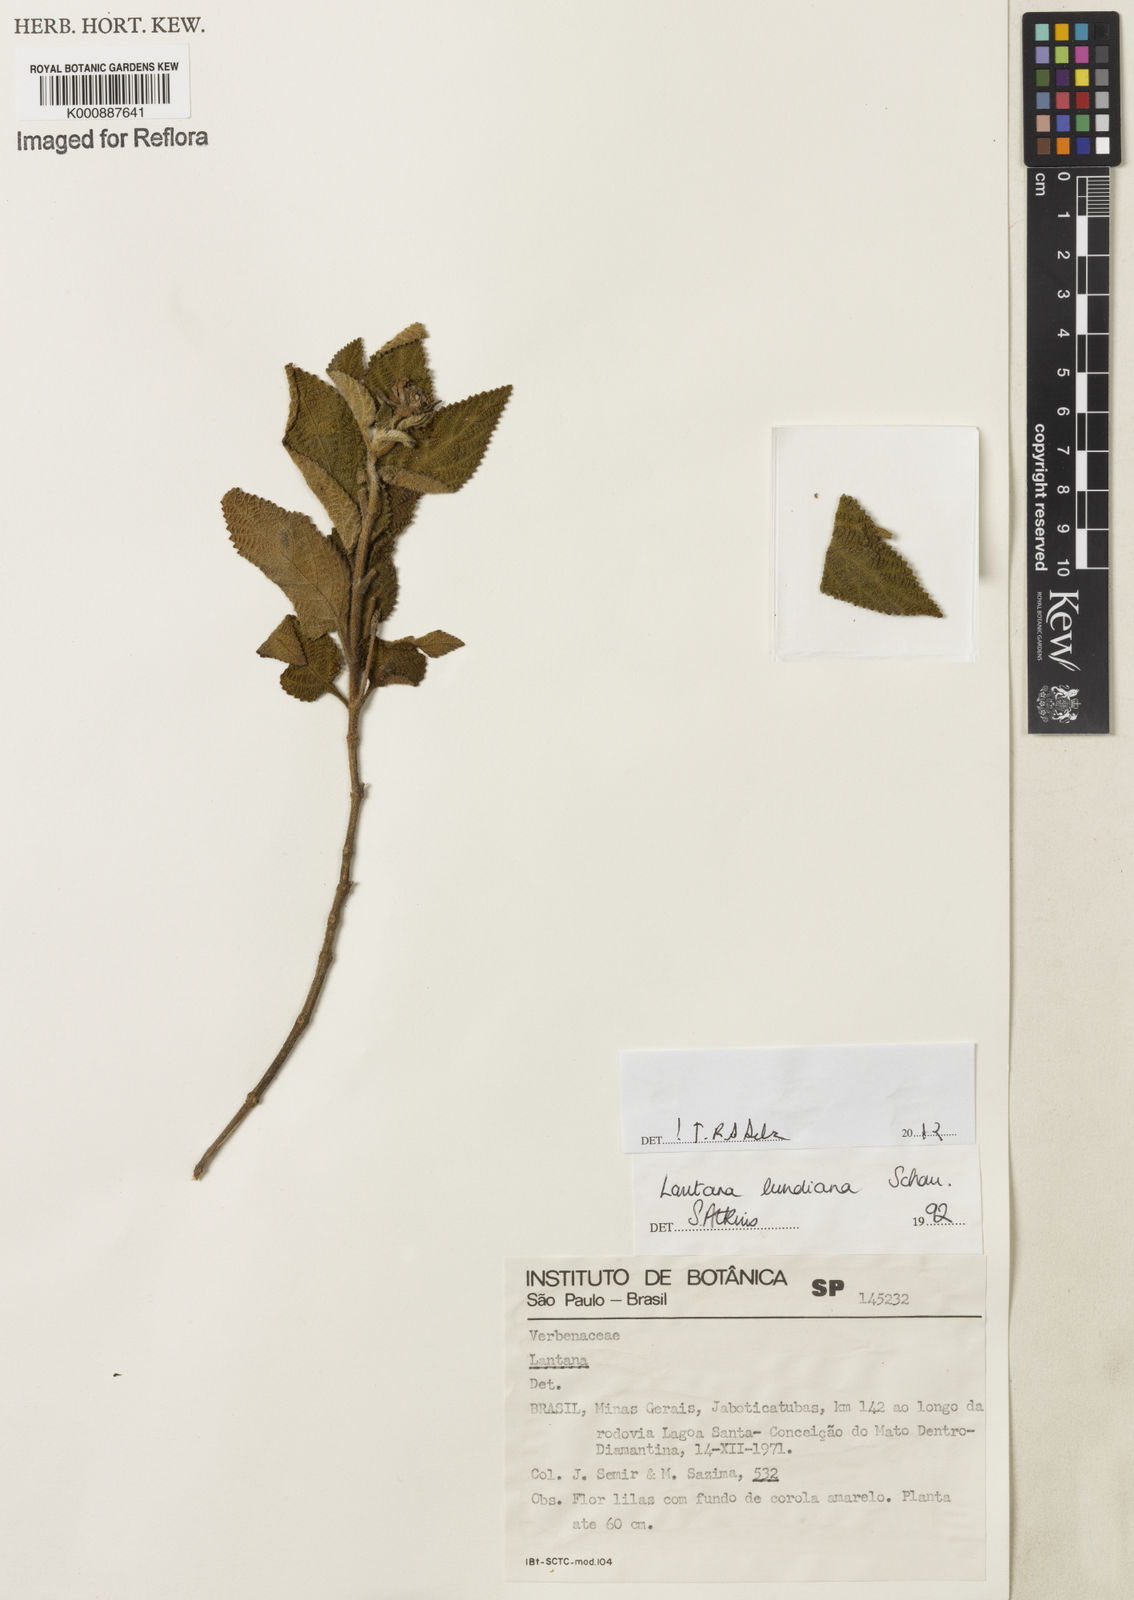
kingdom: Plantae
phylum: Tracheophyta
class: Magnoliopsida
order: Lamiales
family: Verbenaceae
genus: Lantana
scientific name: Lantana lundiana
